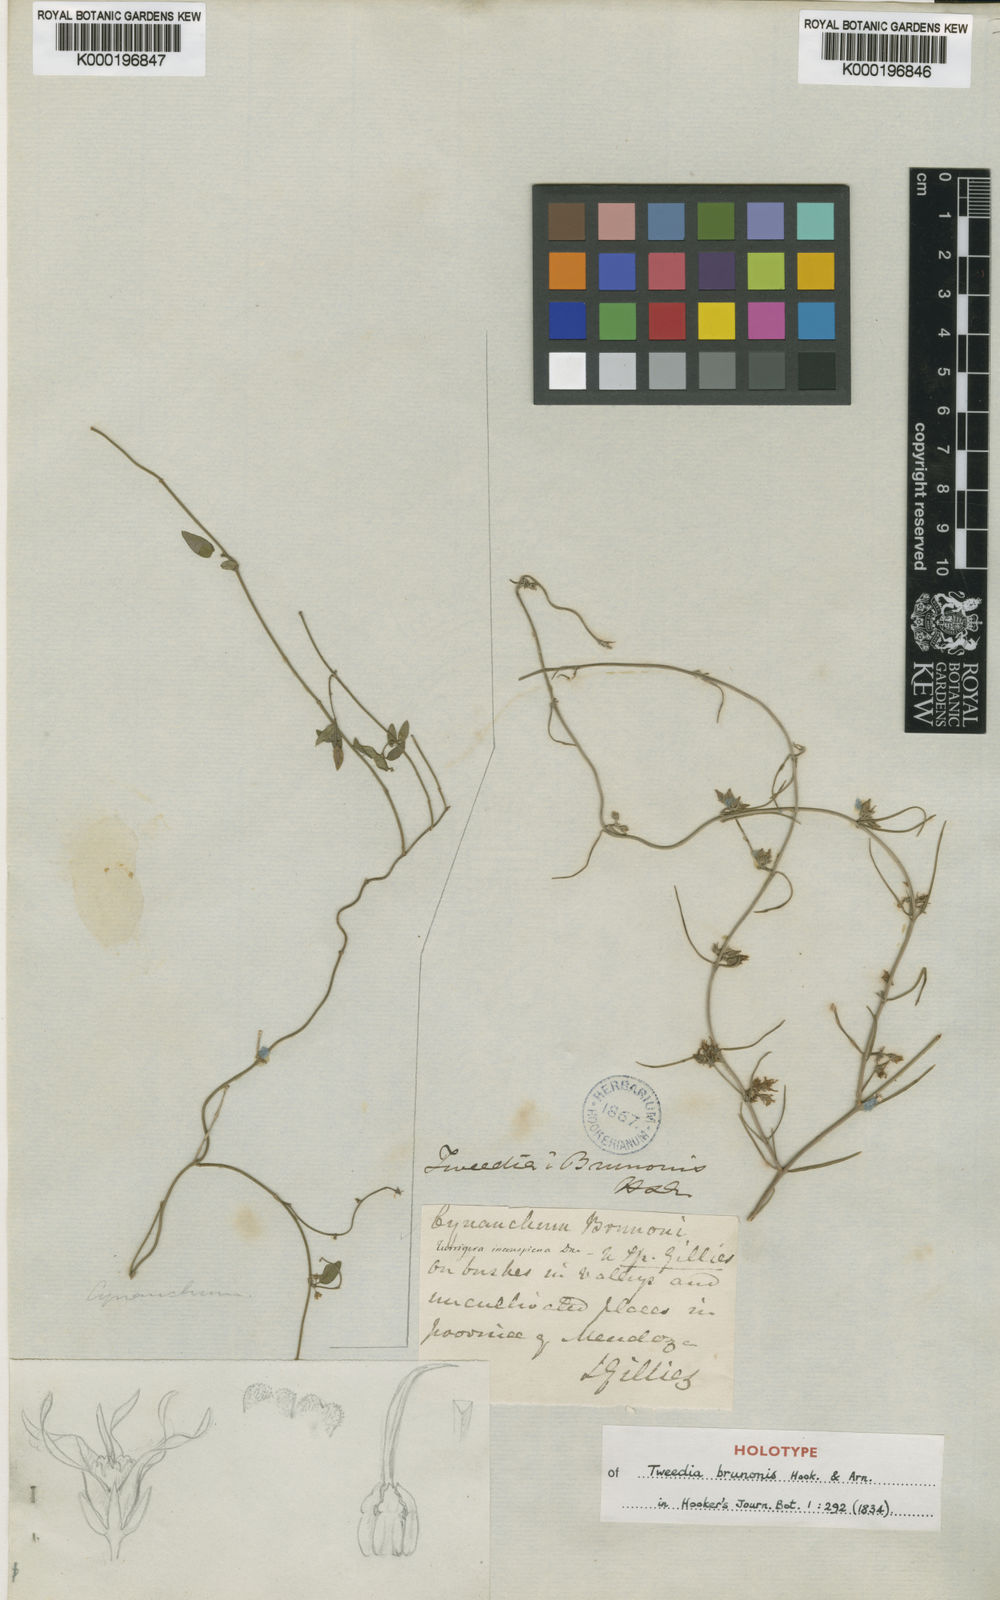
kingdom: Plantae
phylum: Tracheophyta
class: Magnoliopsida
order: Gentianales
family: Apocynaceae
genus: Tweedia
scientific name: Tweedia brunonis
